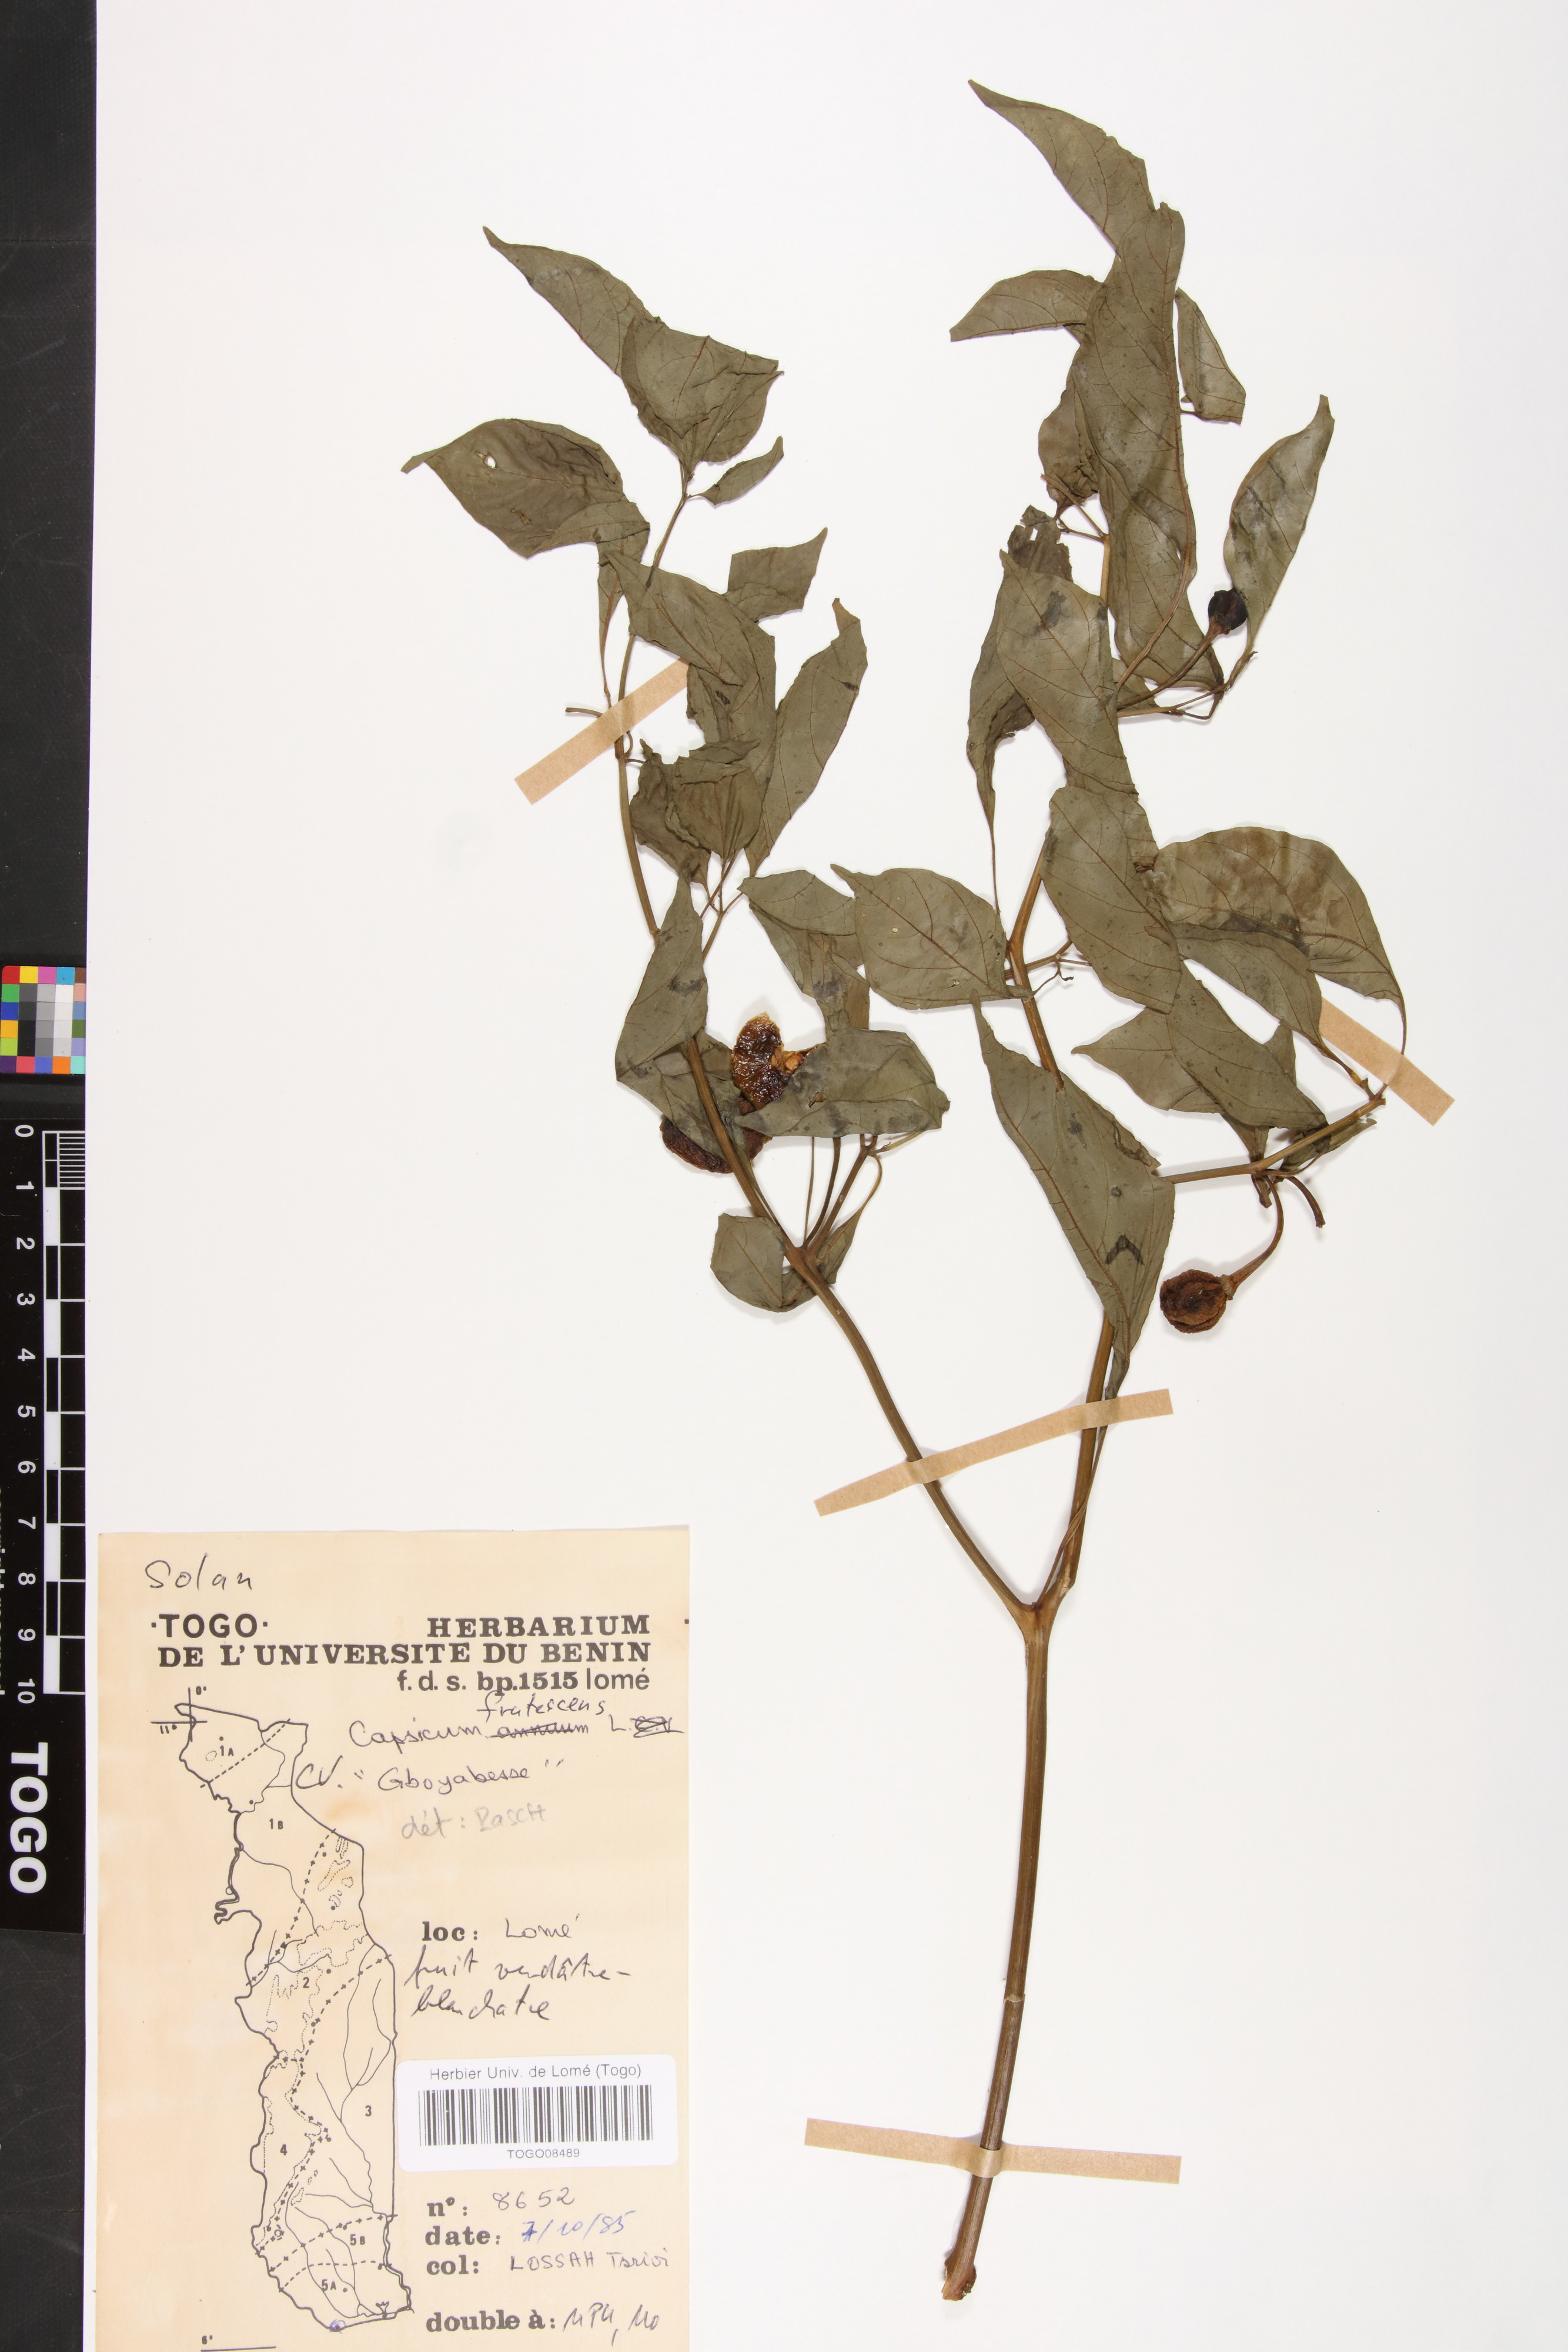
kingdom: Plantae
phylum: Tracheophyta
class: Magnoliopsida
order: Solanales
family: Solanaceae
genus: Capsicum
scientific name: Capsicum frutescens
